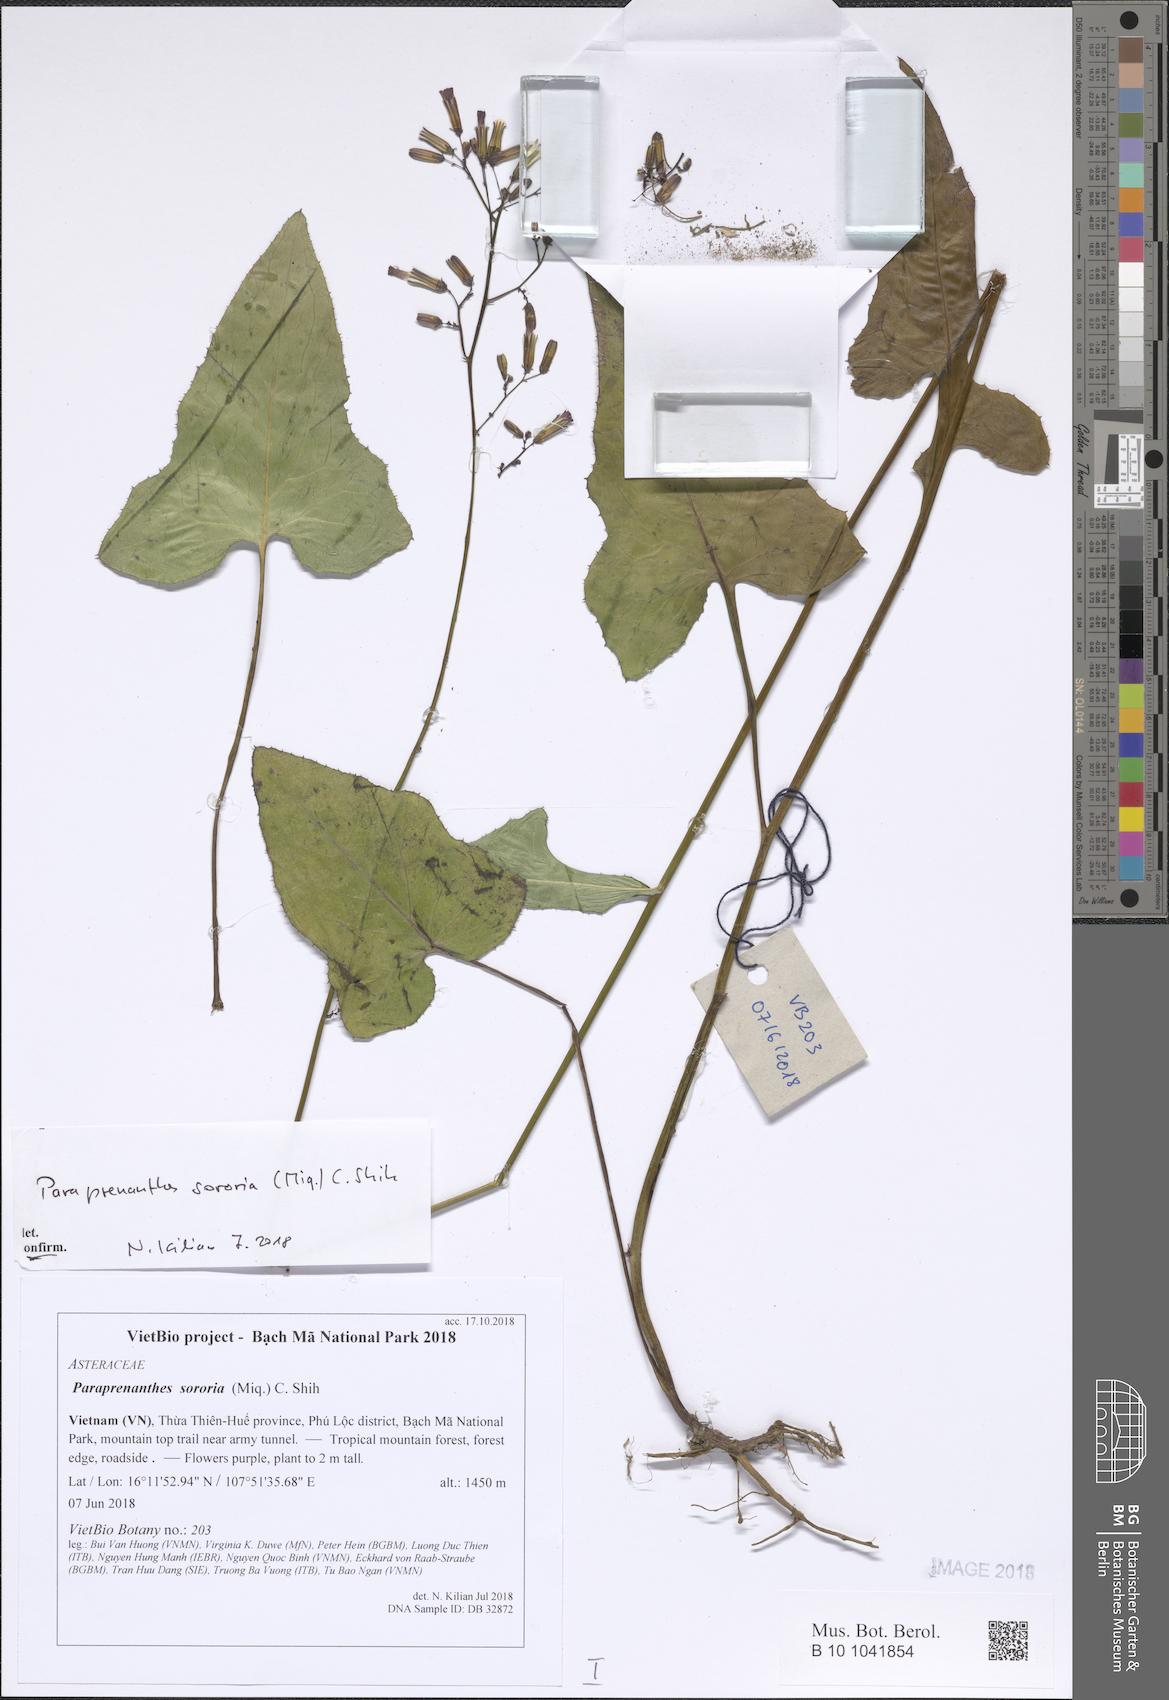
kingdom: Plantae
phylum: Tracheophyta
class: Magnoliopsida
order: Asterales
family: Asteraceae
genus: Paraprenanthes
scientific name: Paraprenanthes sororia
